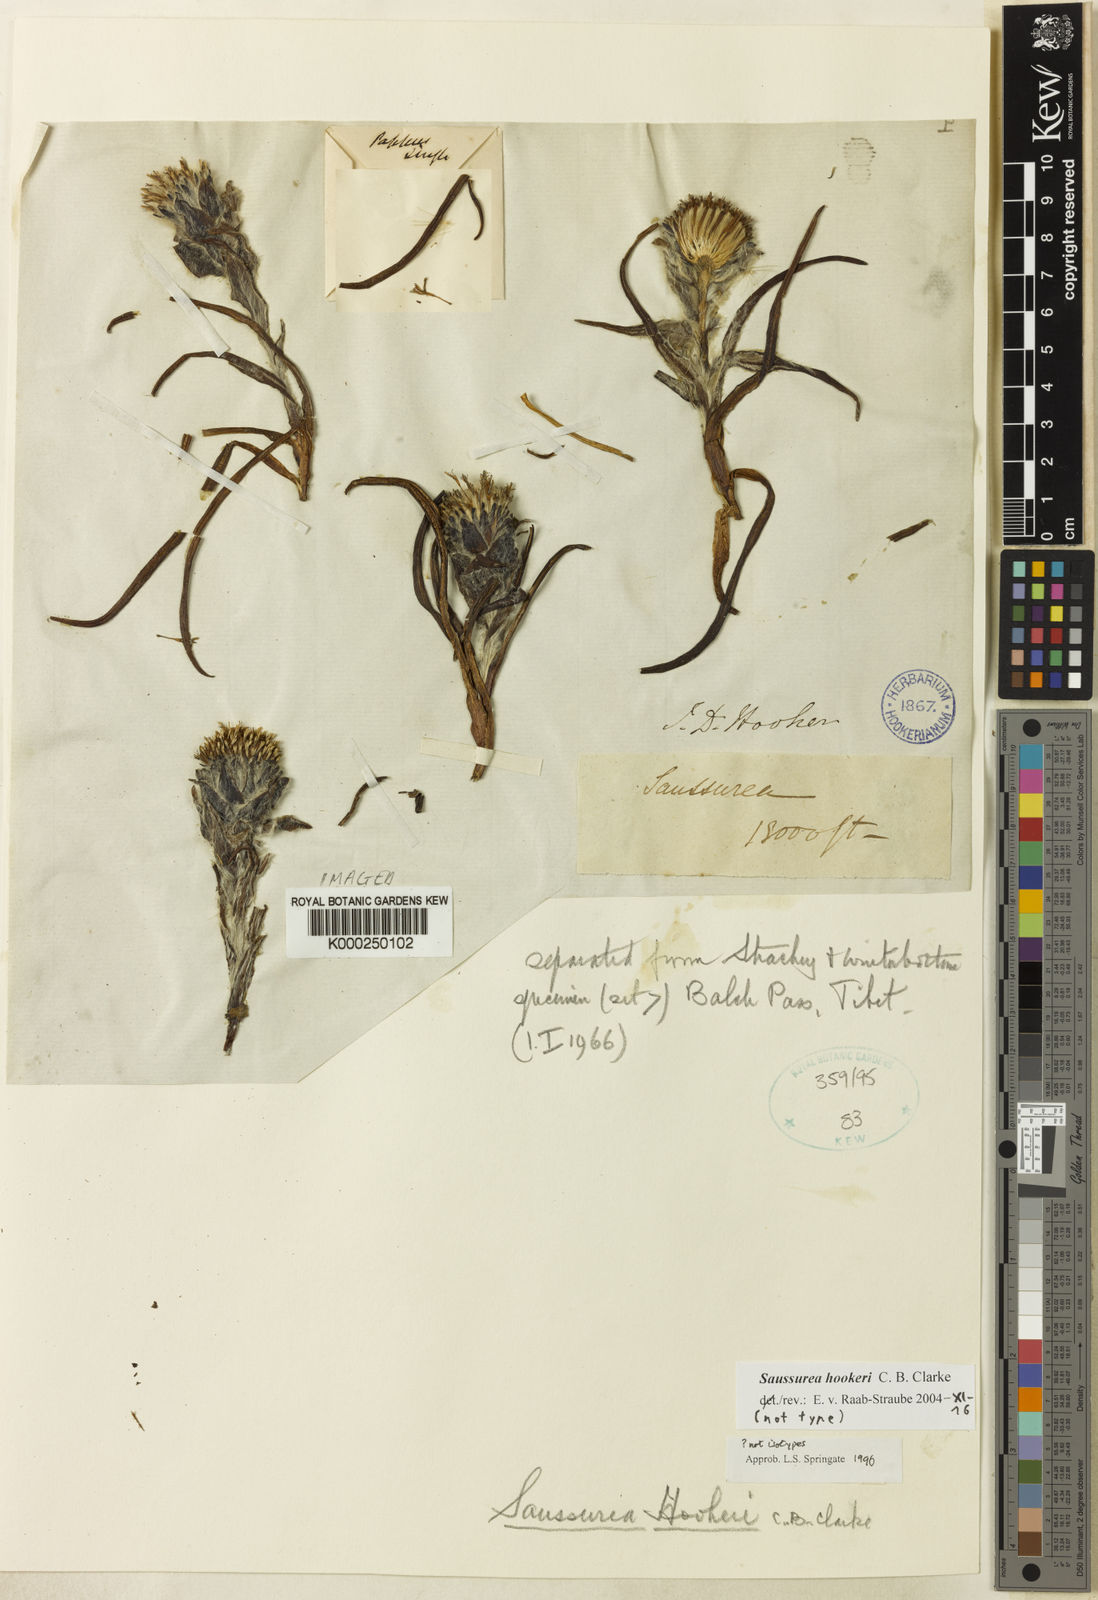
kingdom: Plantae
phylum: Tracheophyta
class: Magnoliopsida
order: Asterales
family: Asteraceae
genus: Saussurea
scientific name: Saussurea hookeri
